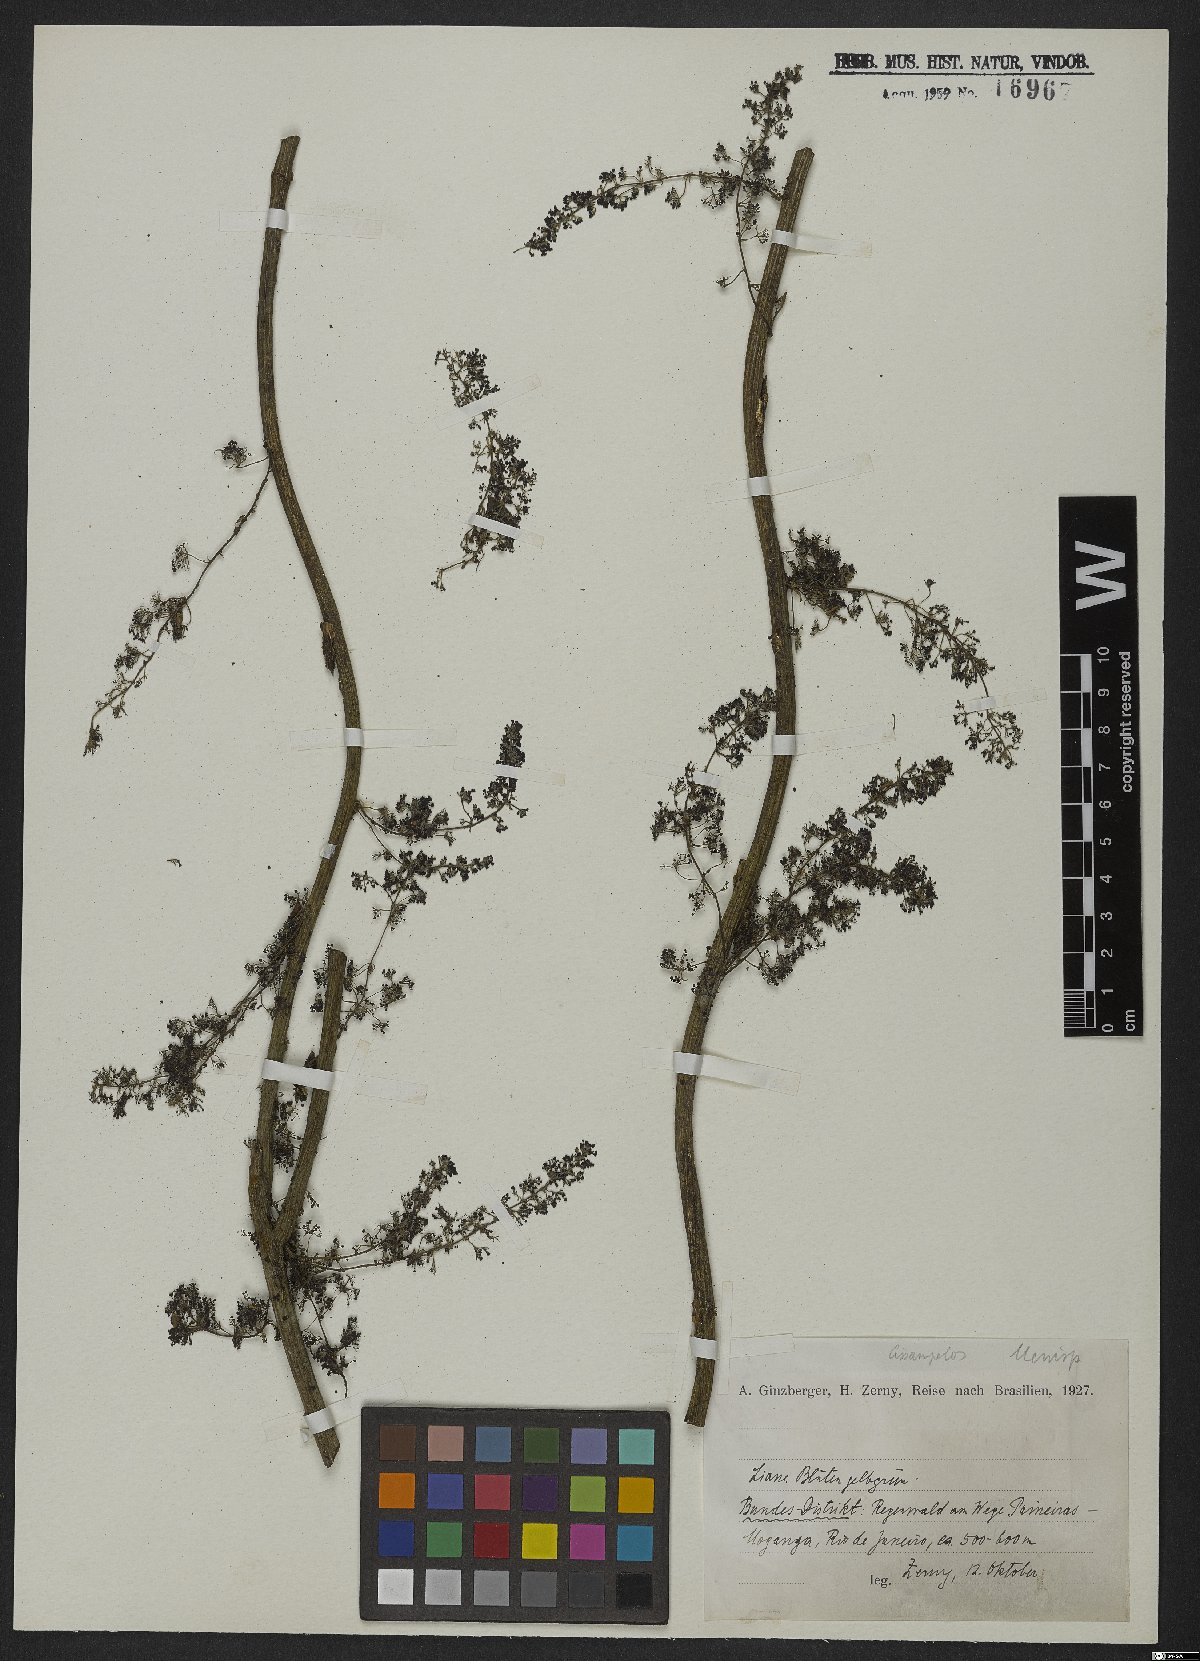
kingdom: Plantae
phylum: Tracheophyta
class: Magnoliopsida
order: Ranunculales
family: Menispermaceae
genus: Cissampelos
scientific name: Cissampelos
